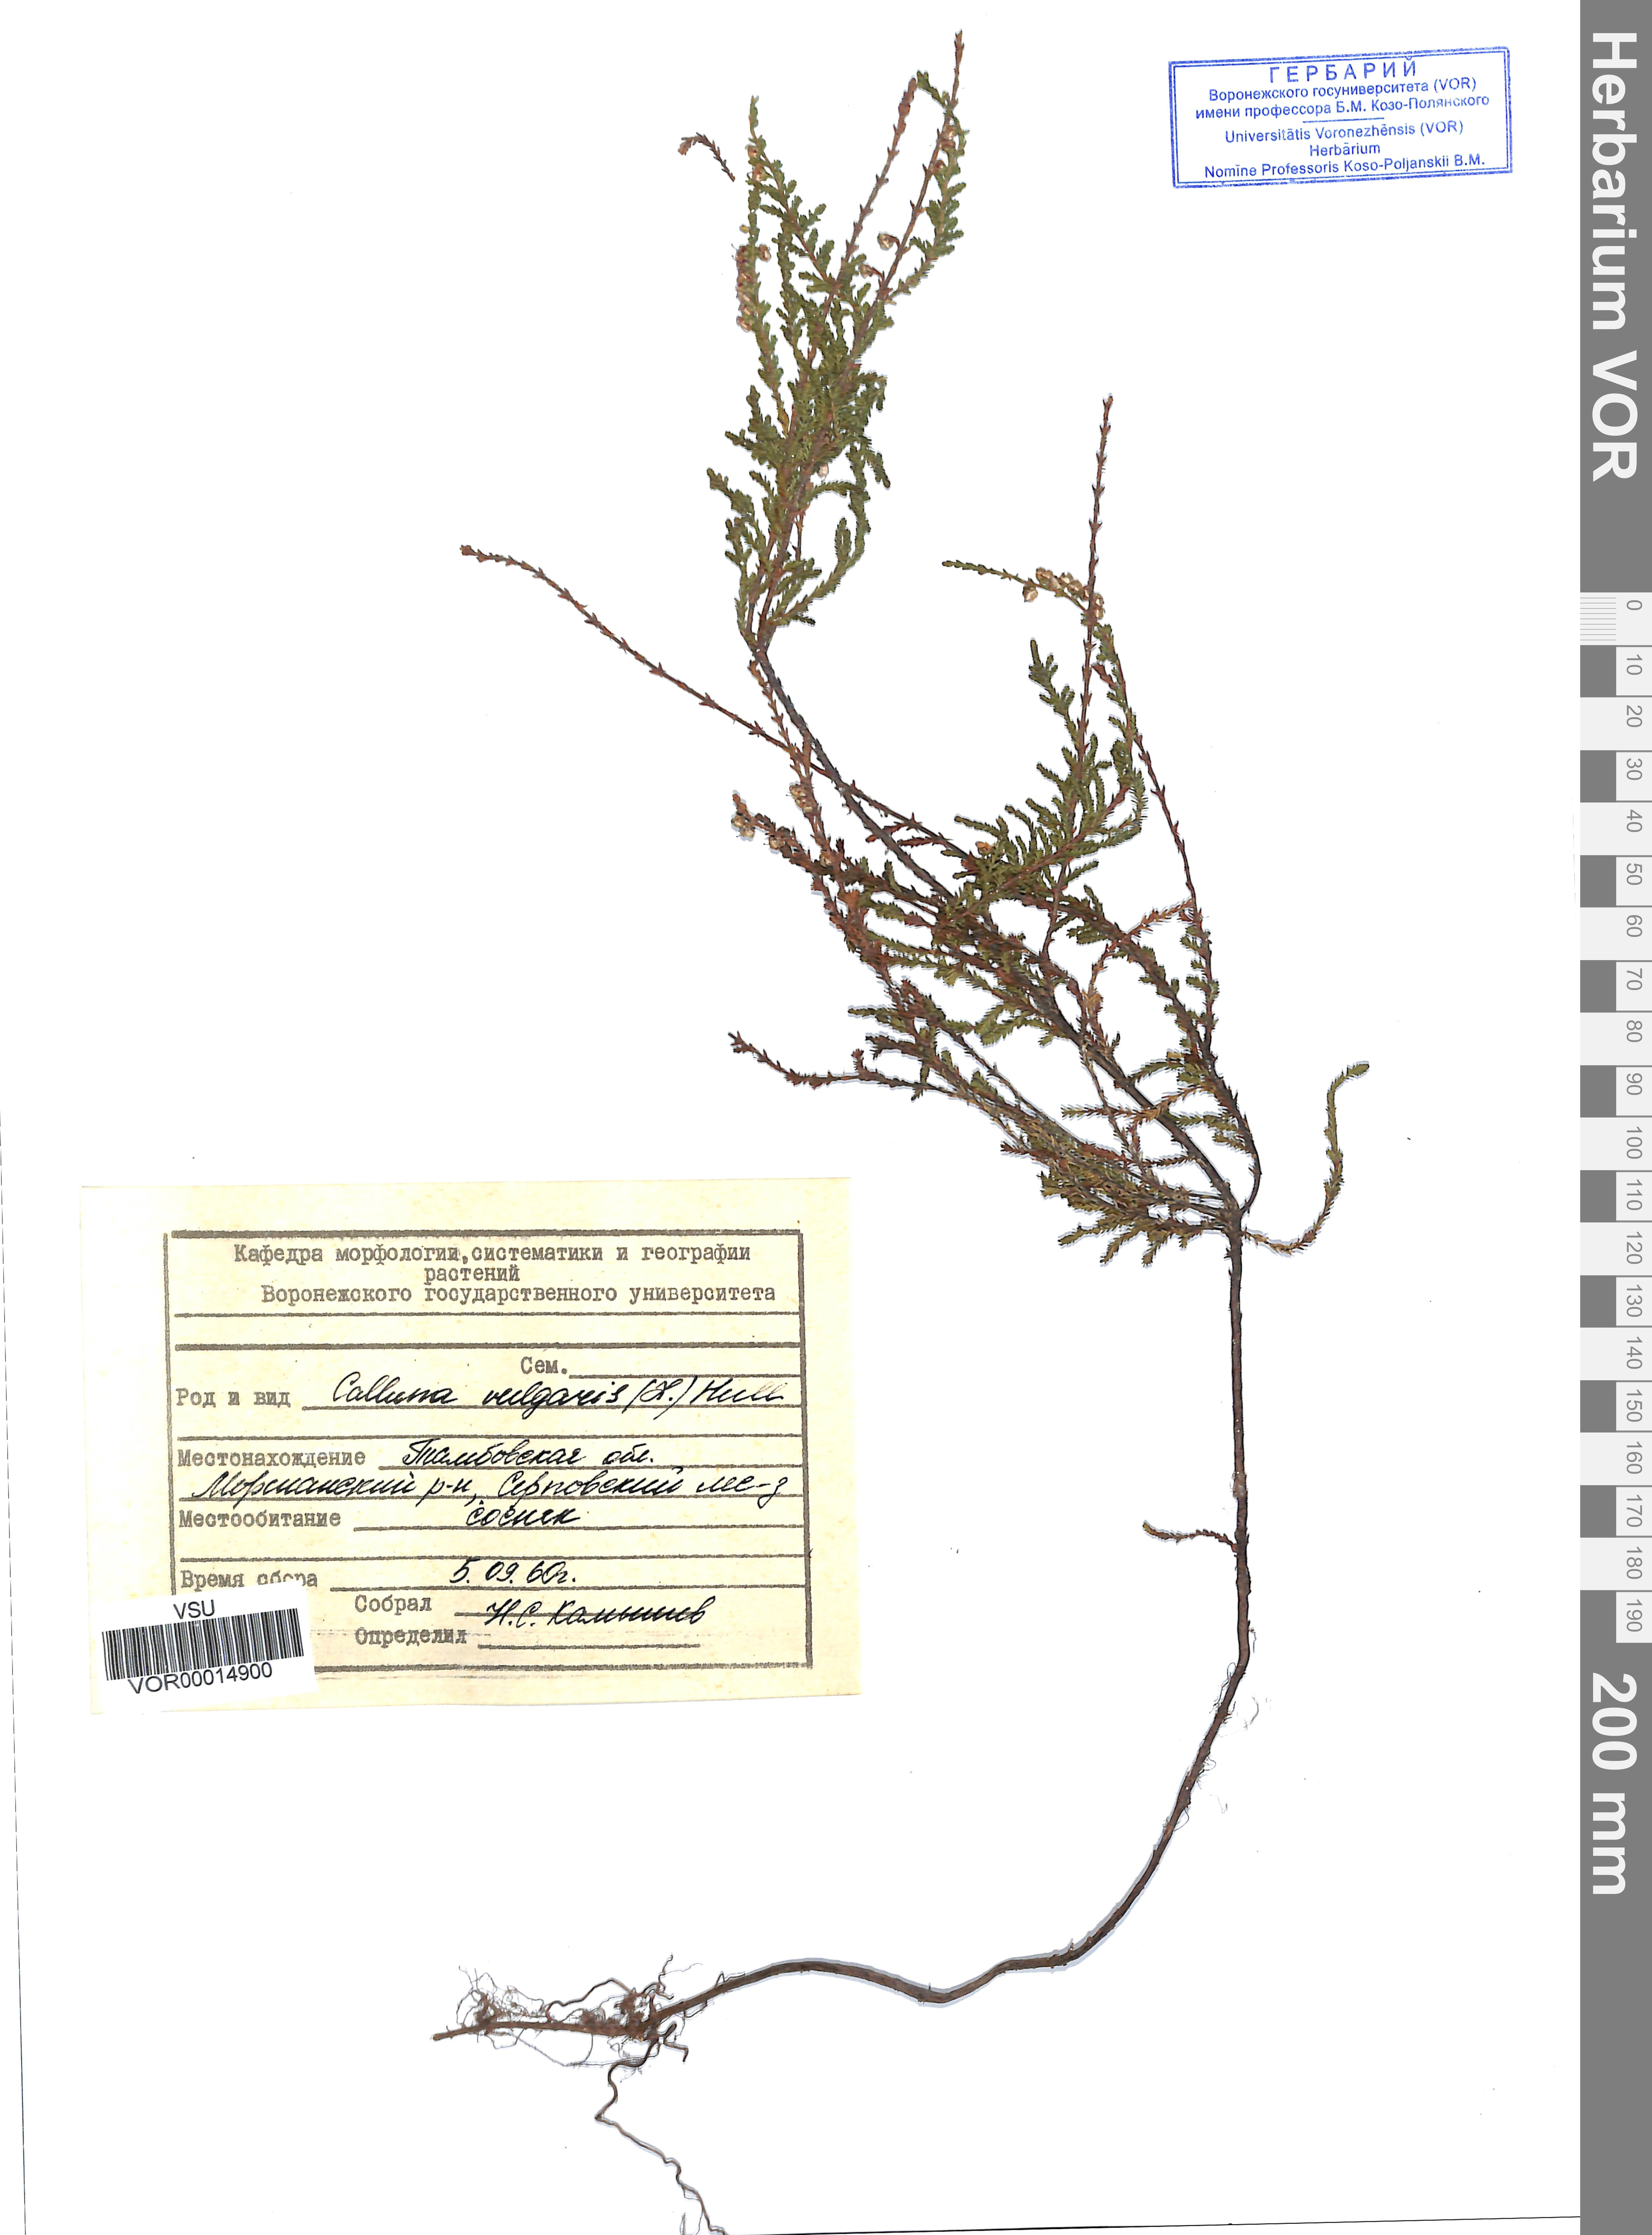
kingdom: Plantae
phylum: Tracheophyta
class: Magnoliopsida
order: Ericales
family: Ericaceae
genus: Calluna
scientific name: Calluna vulgaris
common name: Heather
